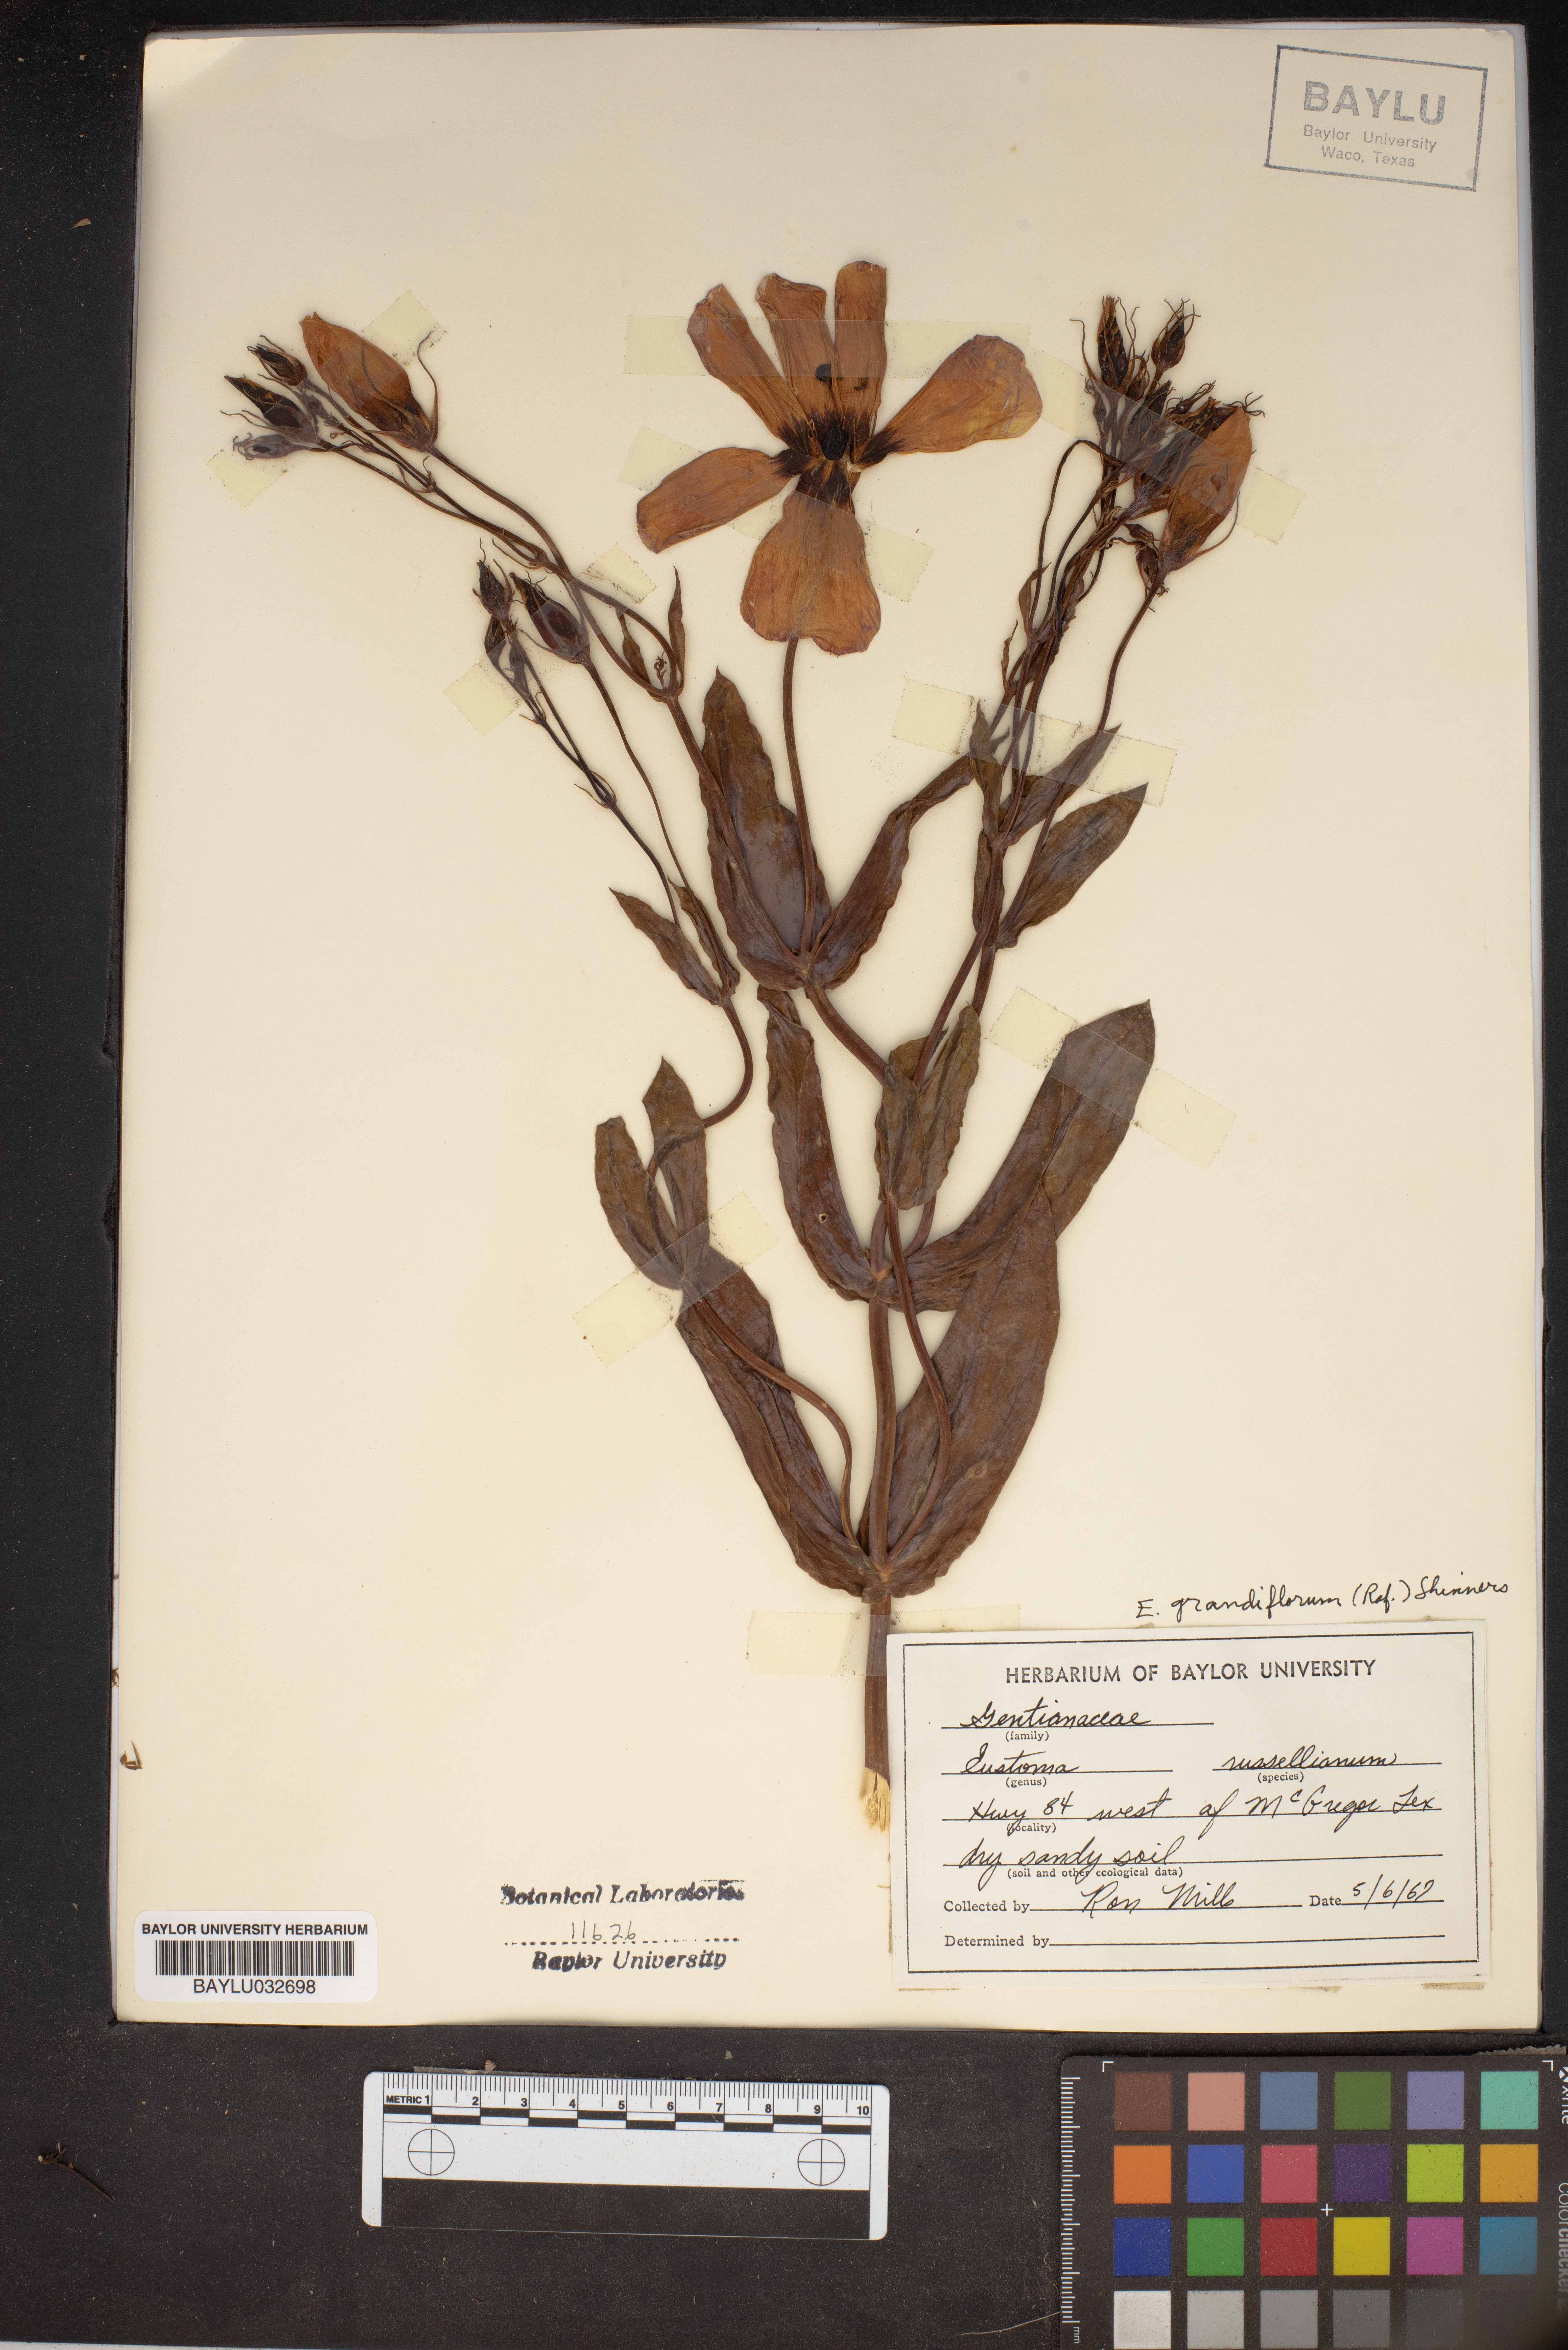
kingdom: Plantae
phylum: Tracheophyta
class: Magnoliopsida
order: Gentianales
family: Gentianaceae
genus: Eustoma
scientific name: Eustoma russellianum
